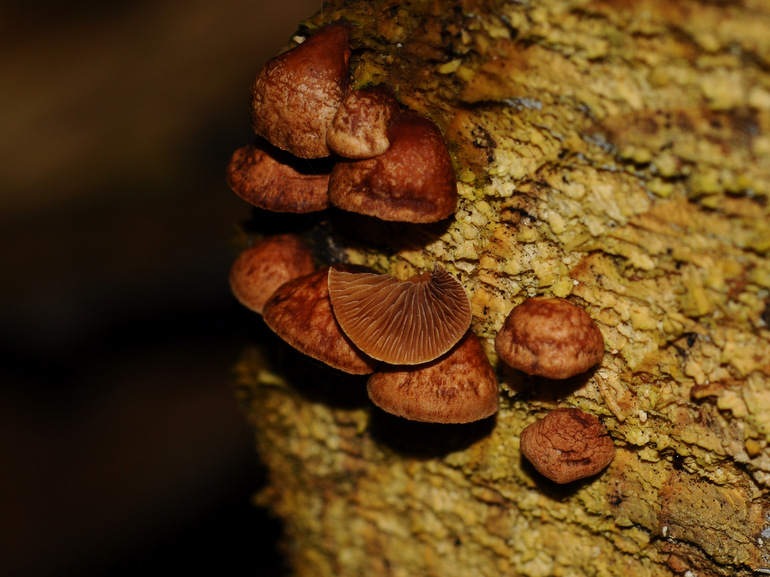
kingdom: Fungi
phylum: Basidiomycota
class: Agaricomycetes
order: Agaricales
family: Strophariaceae
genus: Deconica
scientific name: Deconica horizontalis
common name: ved-stråhat
